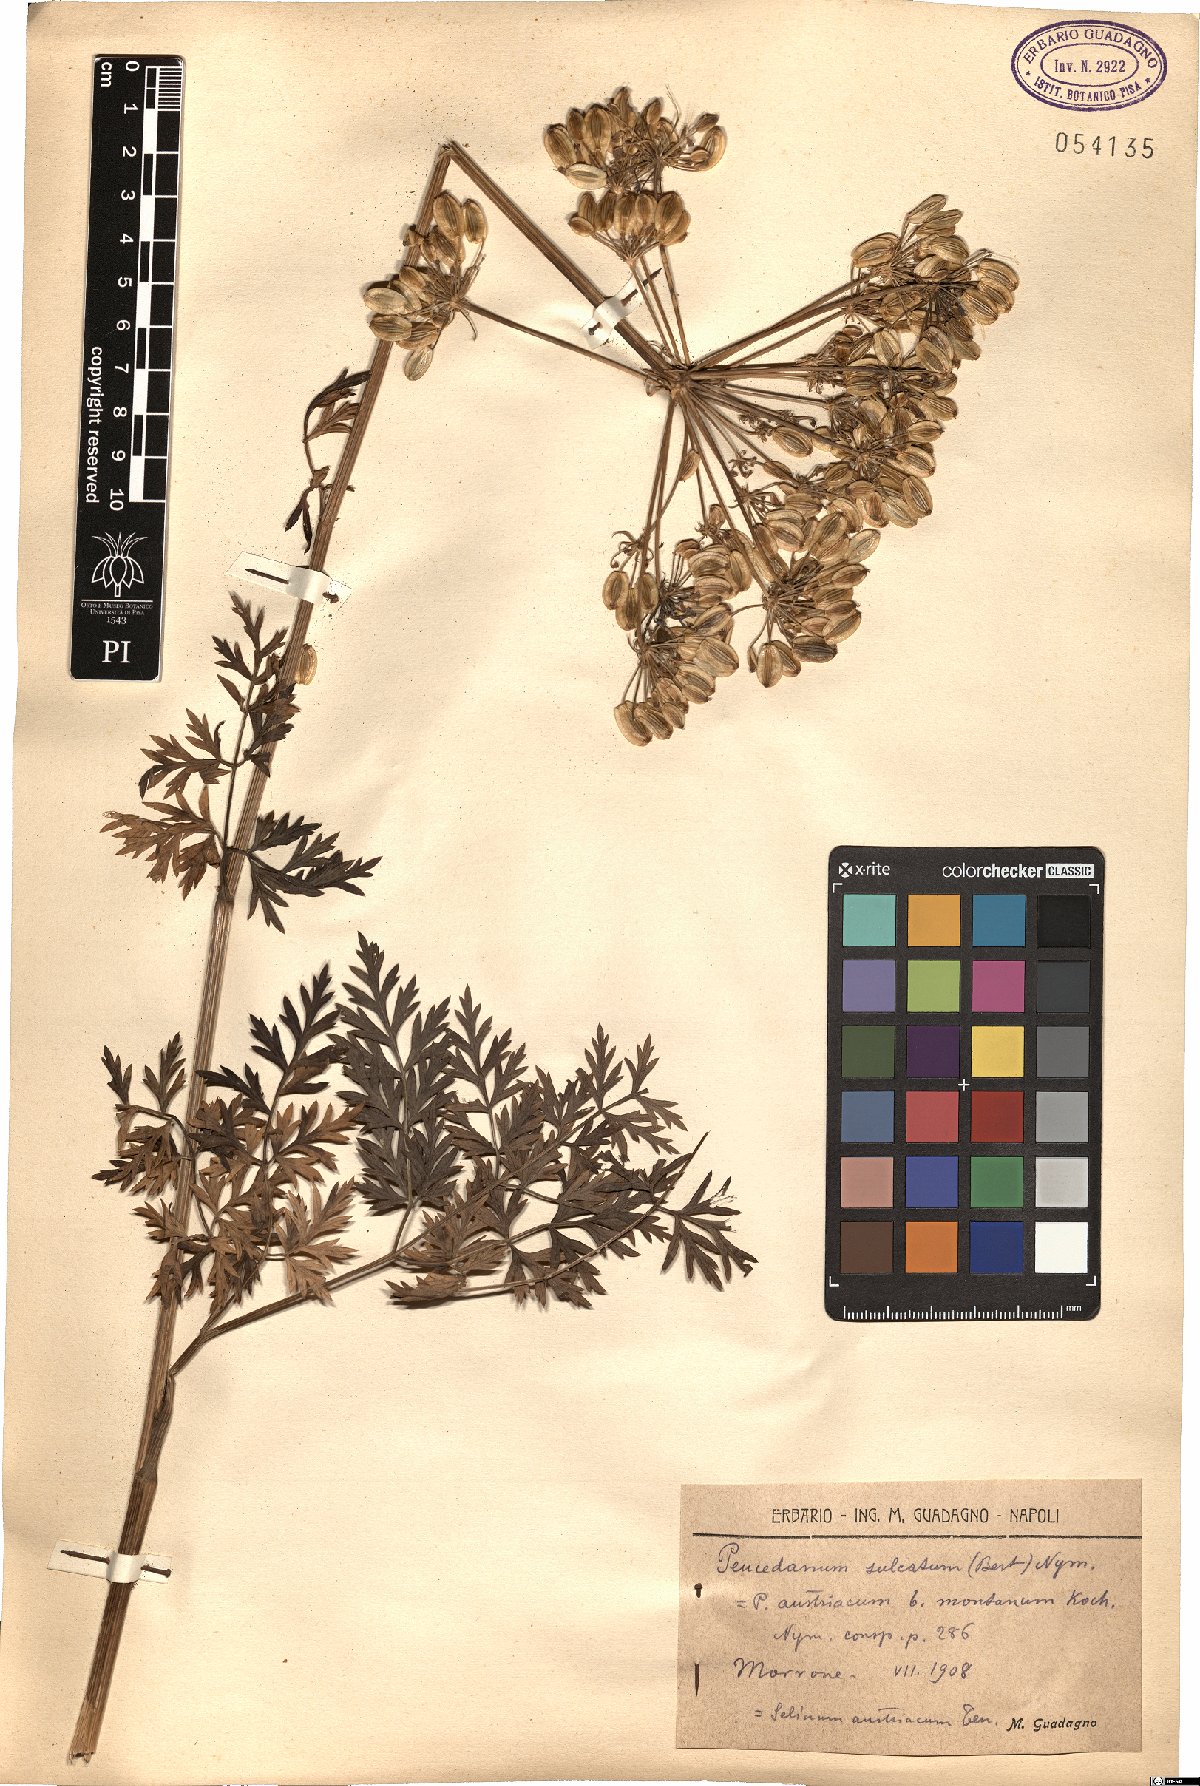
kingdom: Plantae
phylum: Tracheophyta
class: Magnoliopsida
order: Apiales
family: Apiaceae
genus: Cynorhiza
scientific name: Cynorhiza typica
